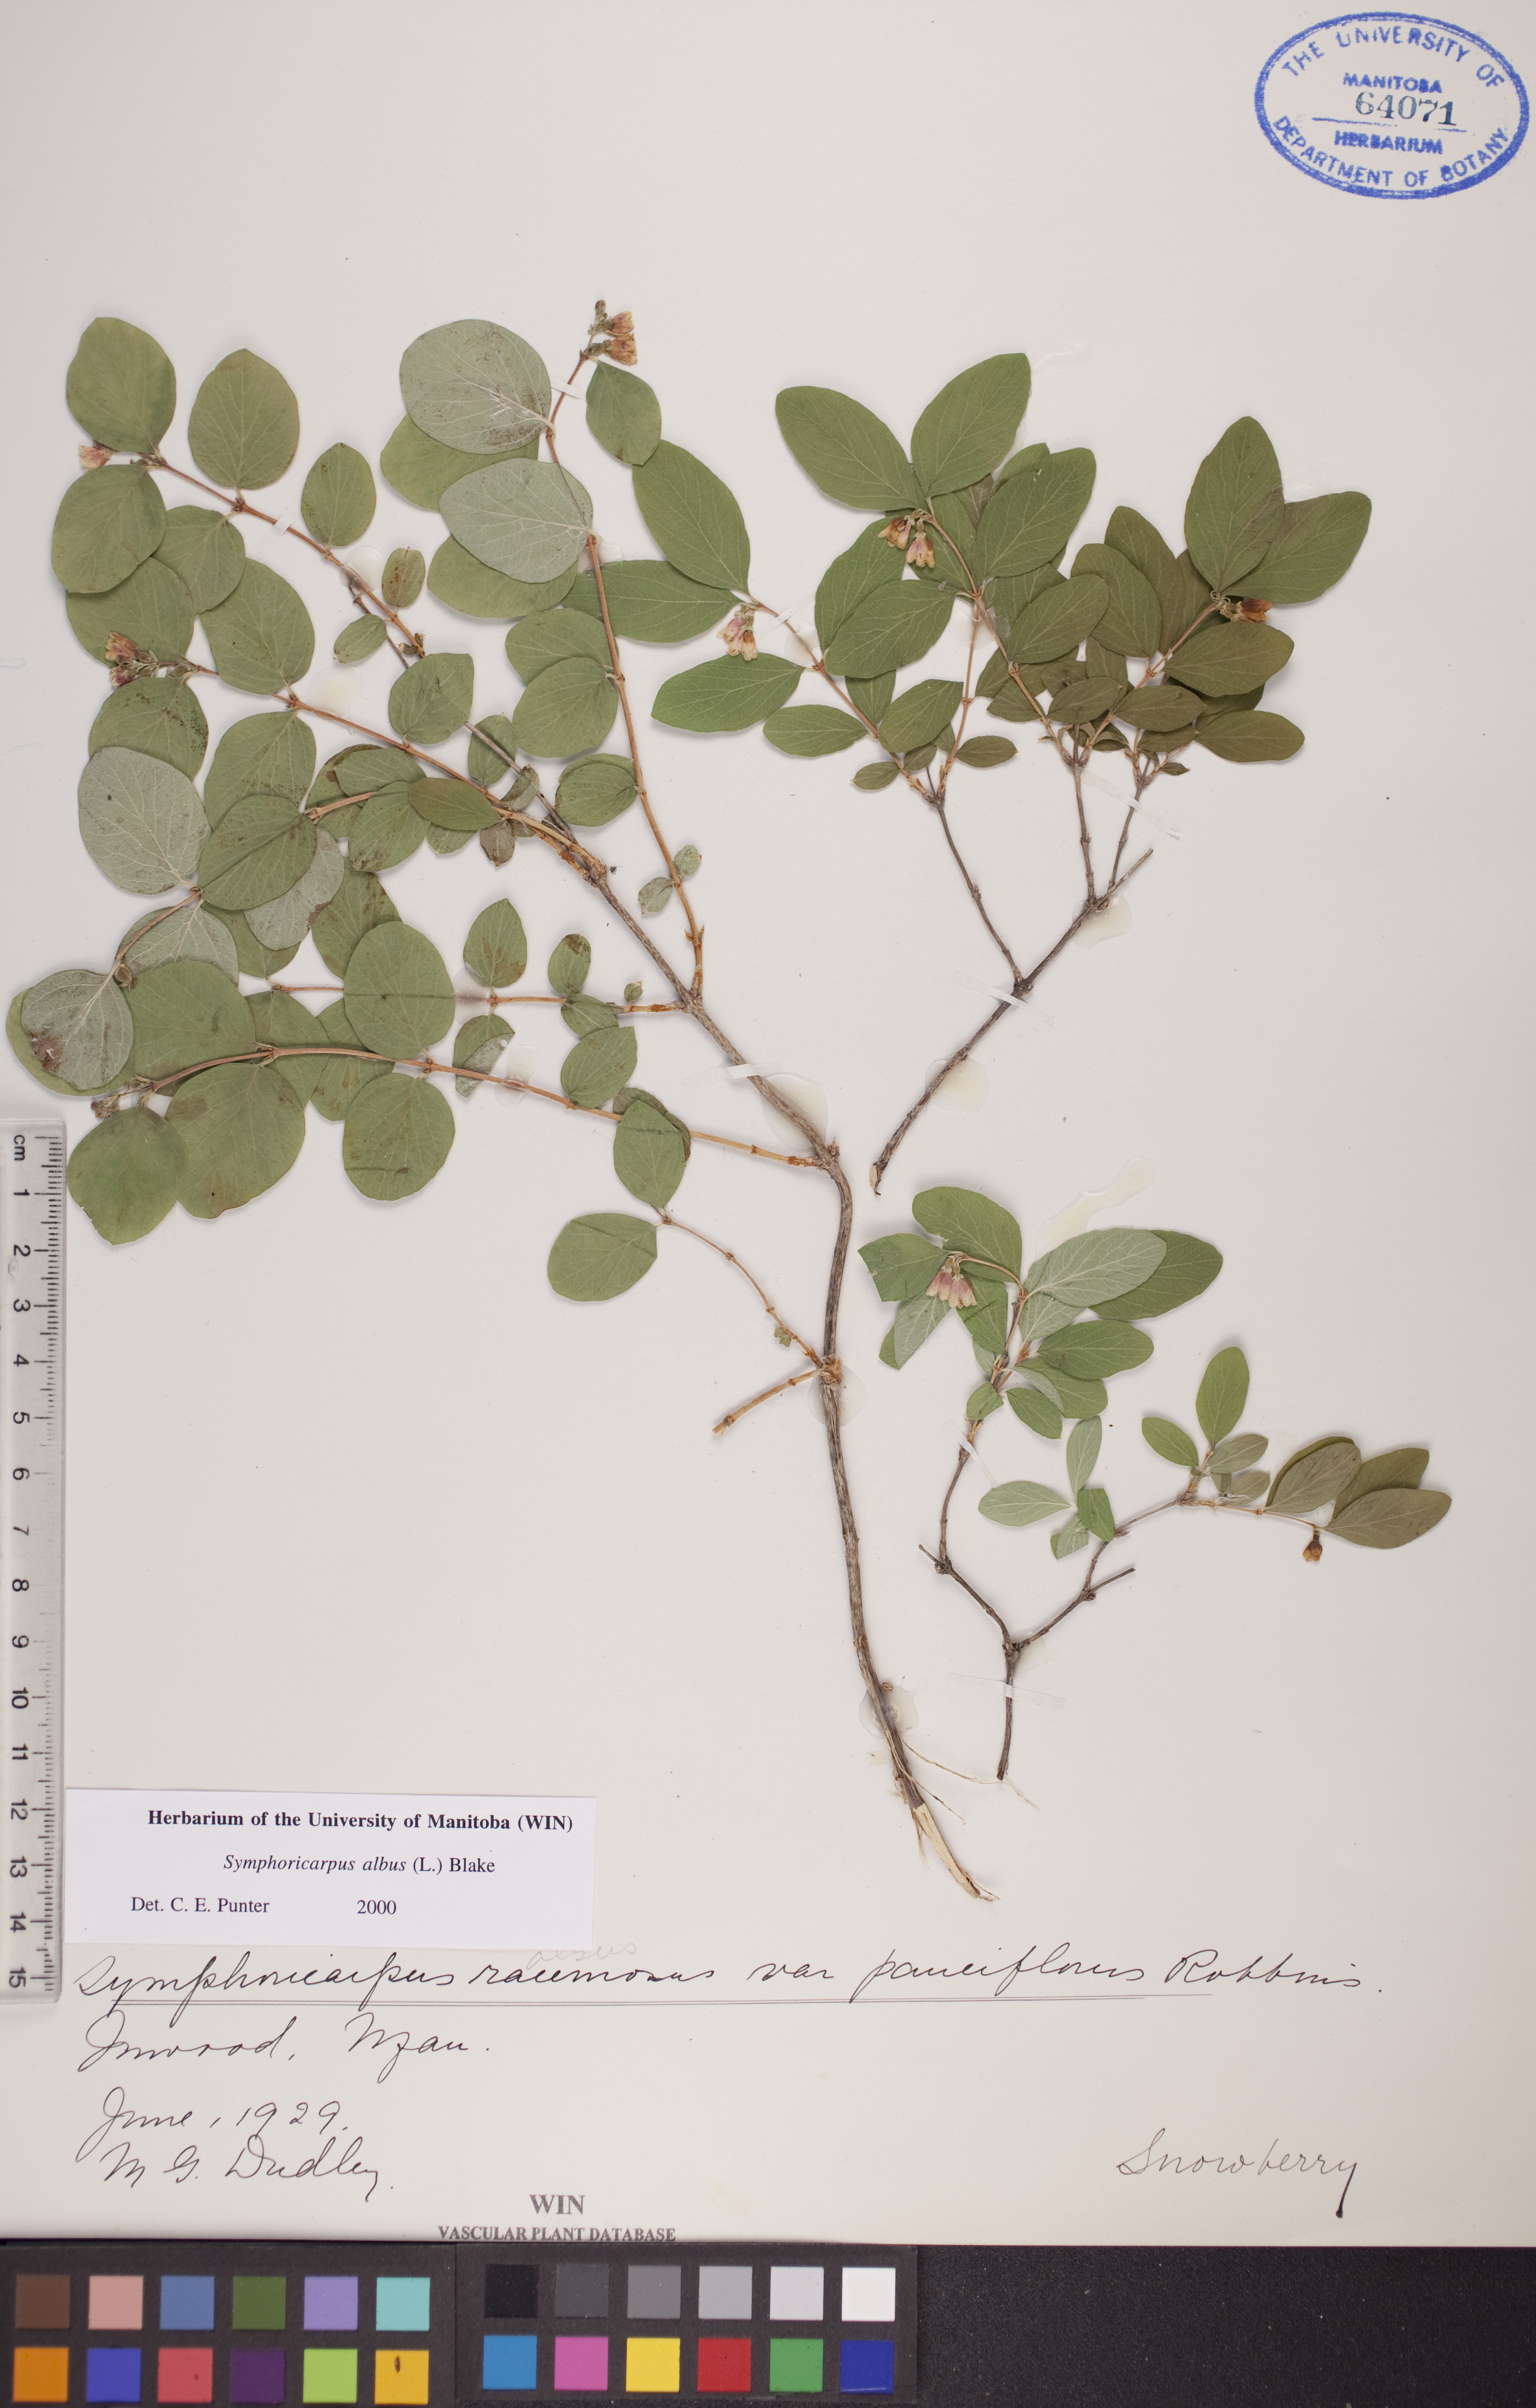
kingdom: Plantae
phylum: Tracheophyta
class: Magnoliopsida
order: Dipsacales
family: Caprifoliaceae
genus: Symphoricarpos
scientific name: Symphoricarpos albus
